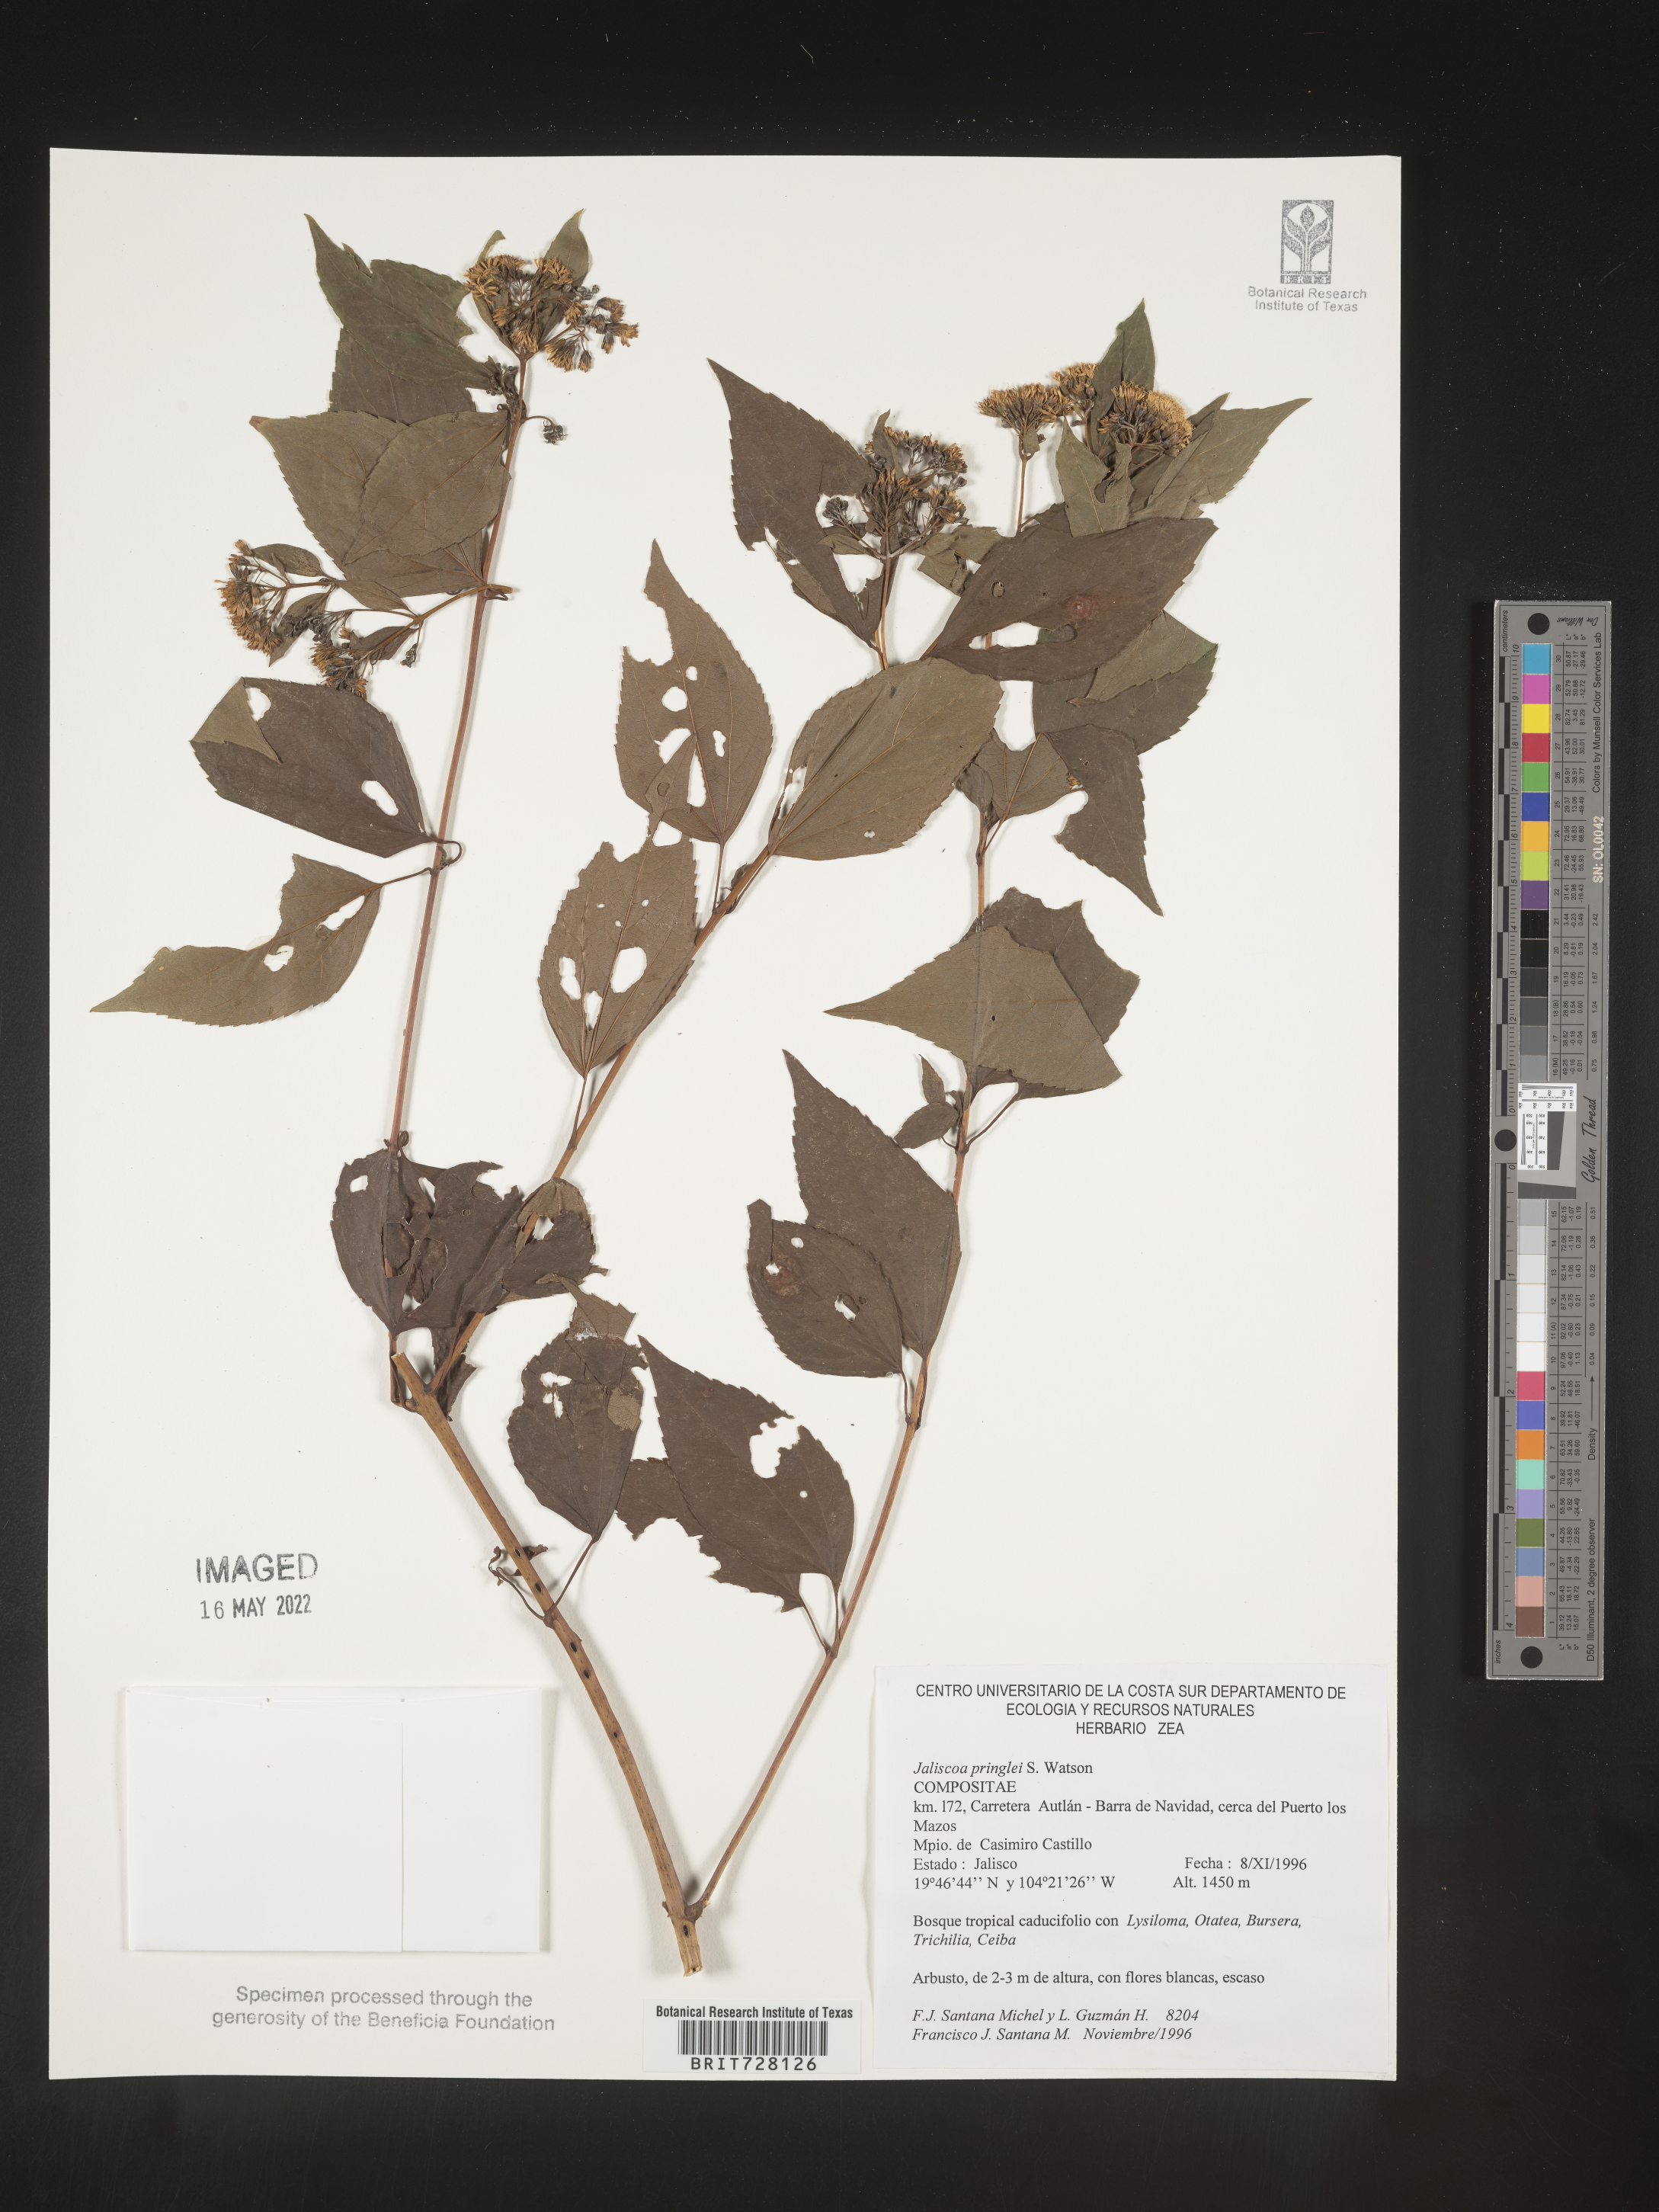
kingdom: Plantae
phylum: Tracheophyta
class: Magnoliopsida
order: Asterales
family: Asteraceae
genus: Jaegeria
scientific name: Jaegeria
